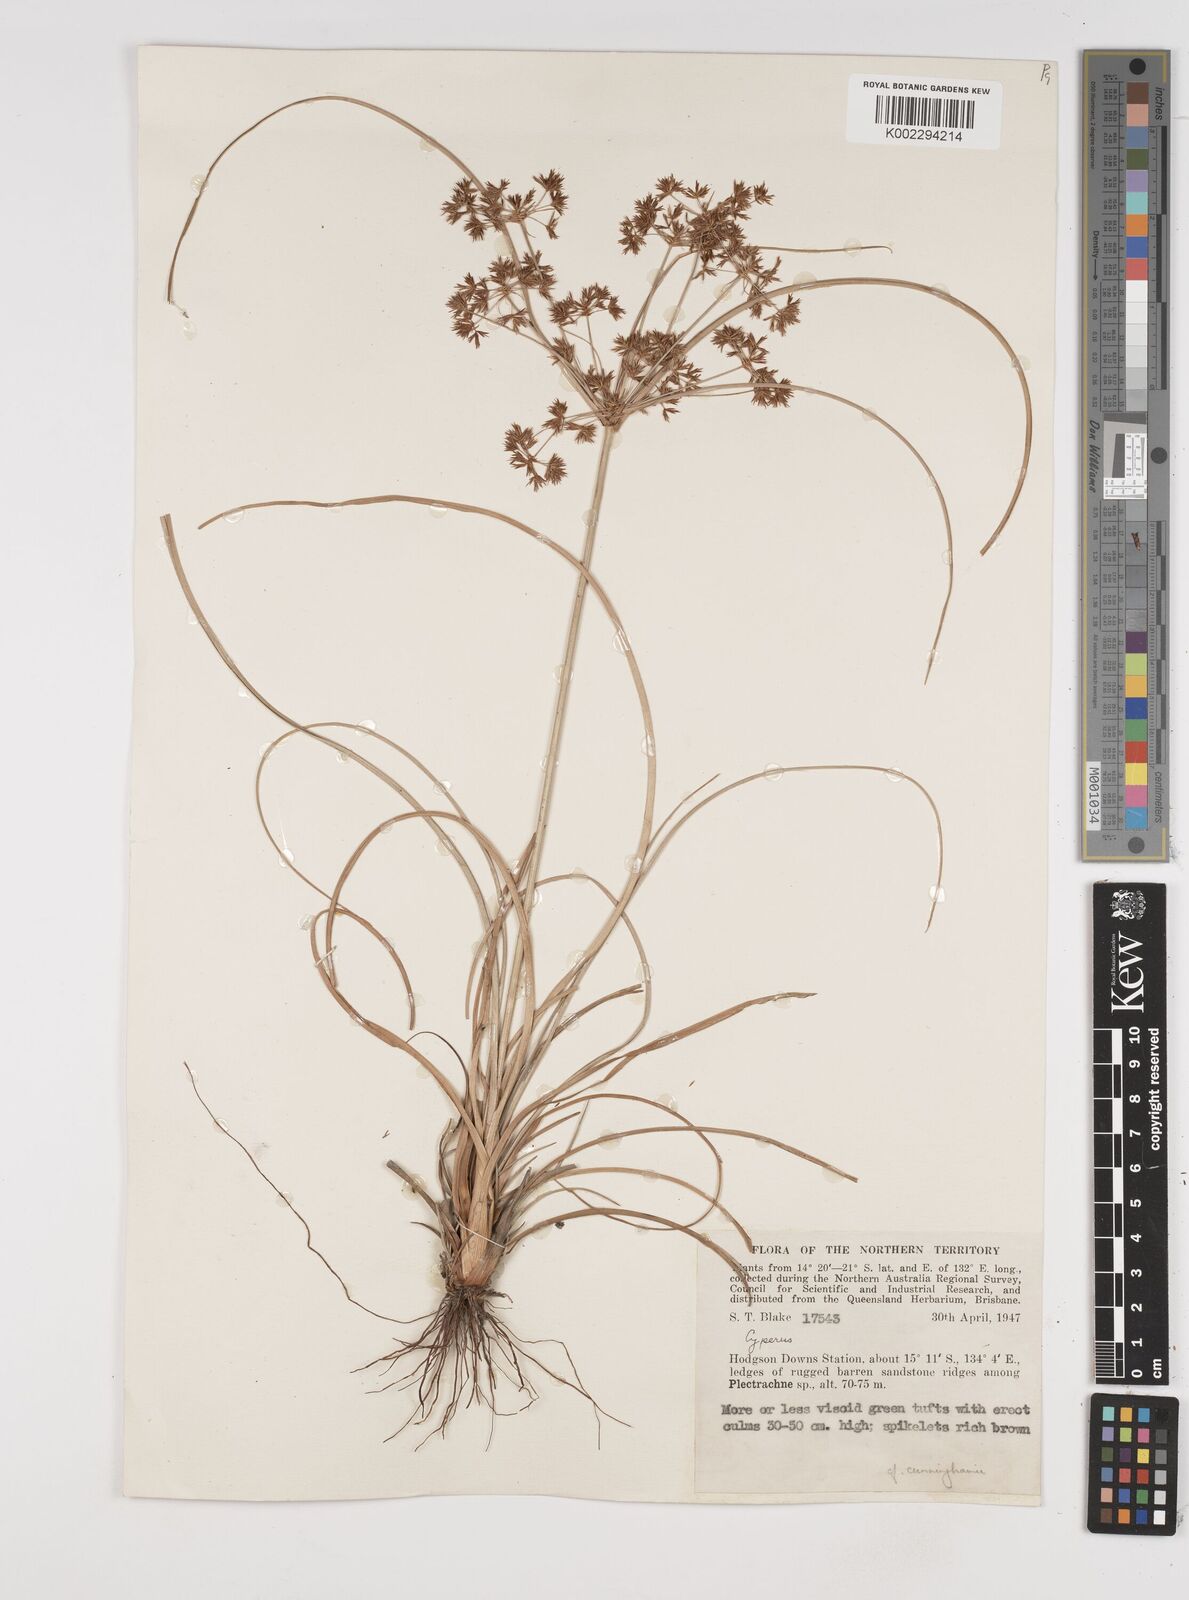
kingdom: Plantae
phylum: Tracheophyta
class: Liliopsida
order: Poales
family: Cyperaceae
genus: Cyperus
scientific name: Cyperus cunninghamii
